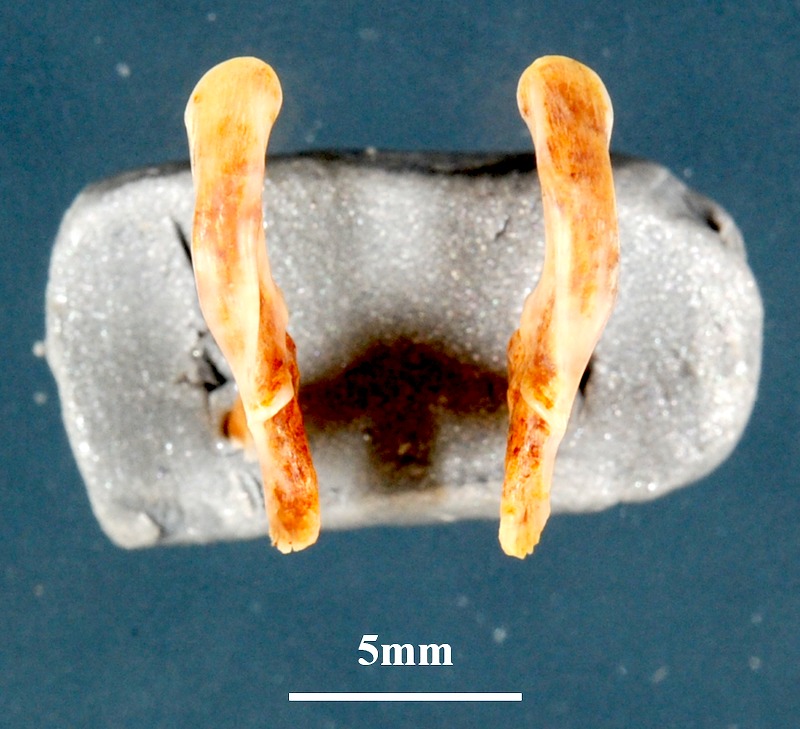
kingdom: Animalia
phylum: Chordata
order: Perciformes
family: Sparidae
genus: Diplodus
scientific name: Diplodus annularis
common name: Annular seabream
